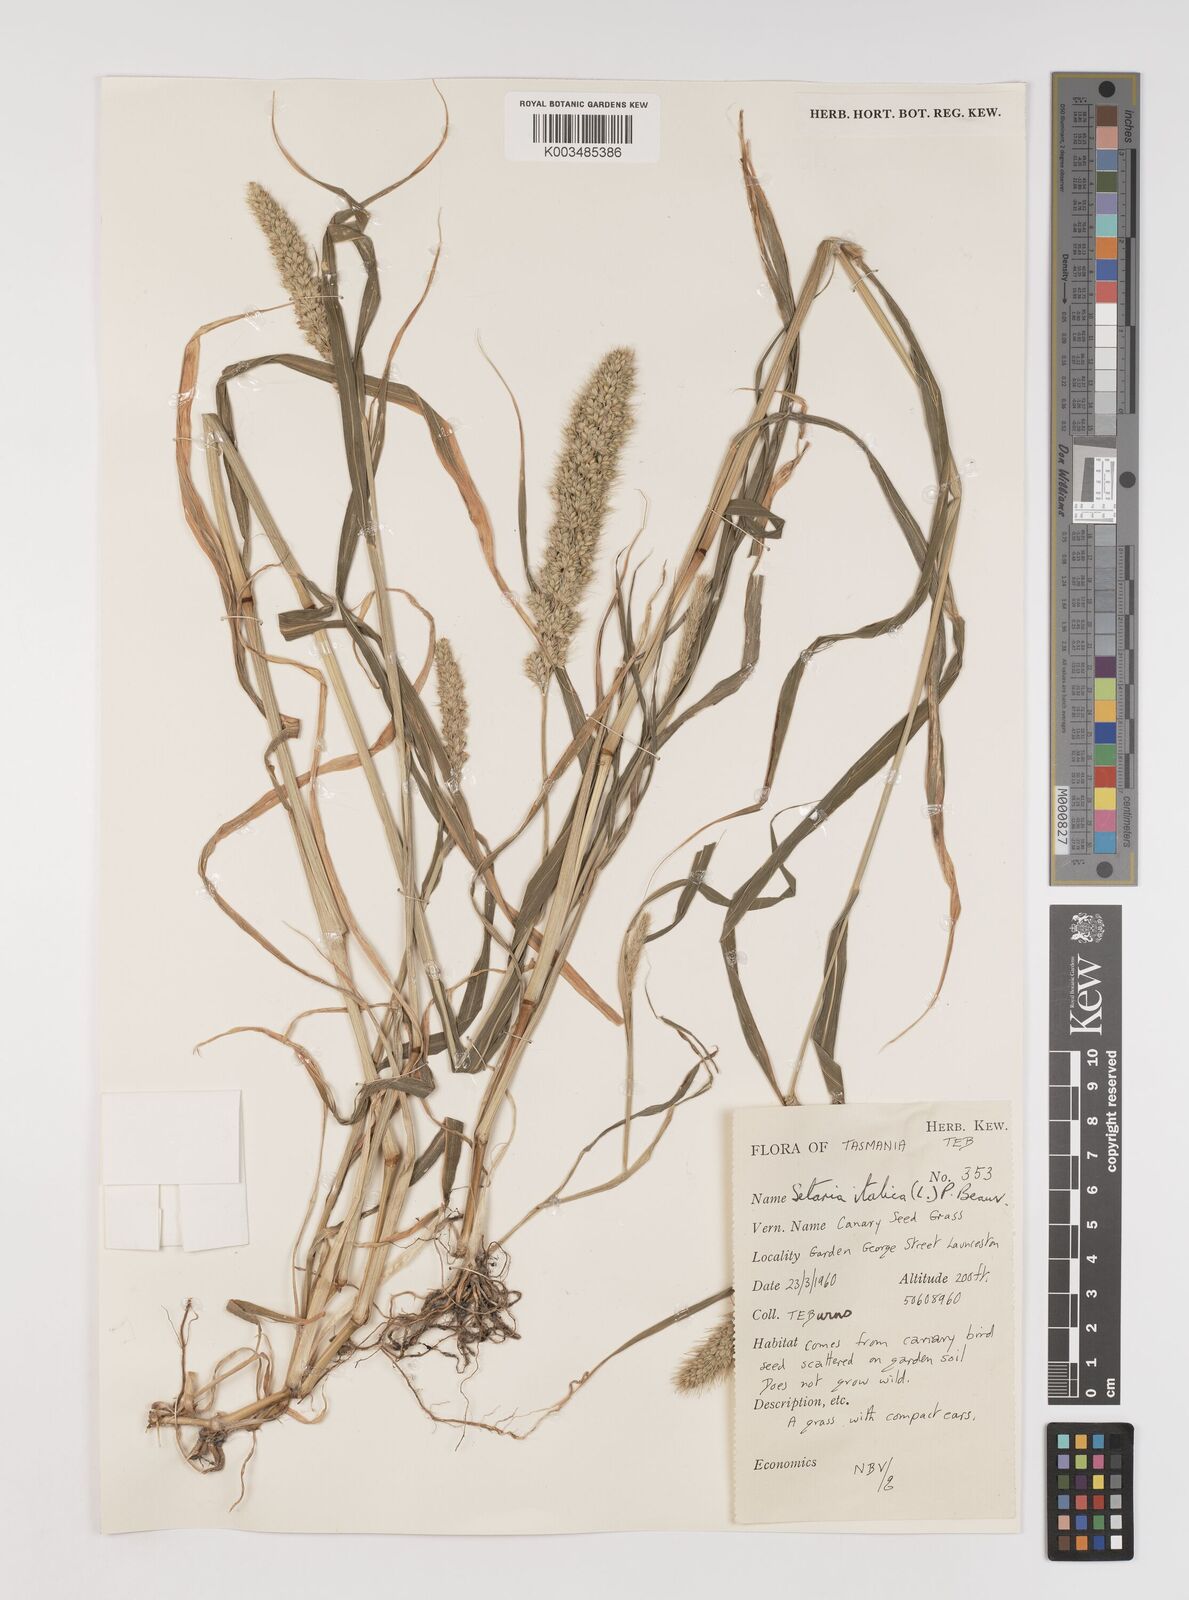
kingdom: Plantae
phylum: Tracheophyta
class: Liliopsida
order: Poales
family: Poaceae
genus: Setaria
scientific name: Setaria italica
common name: Foxtail bristle-grass
